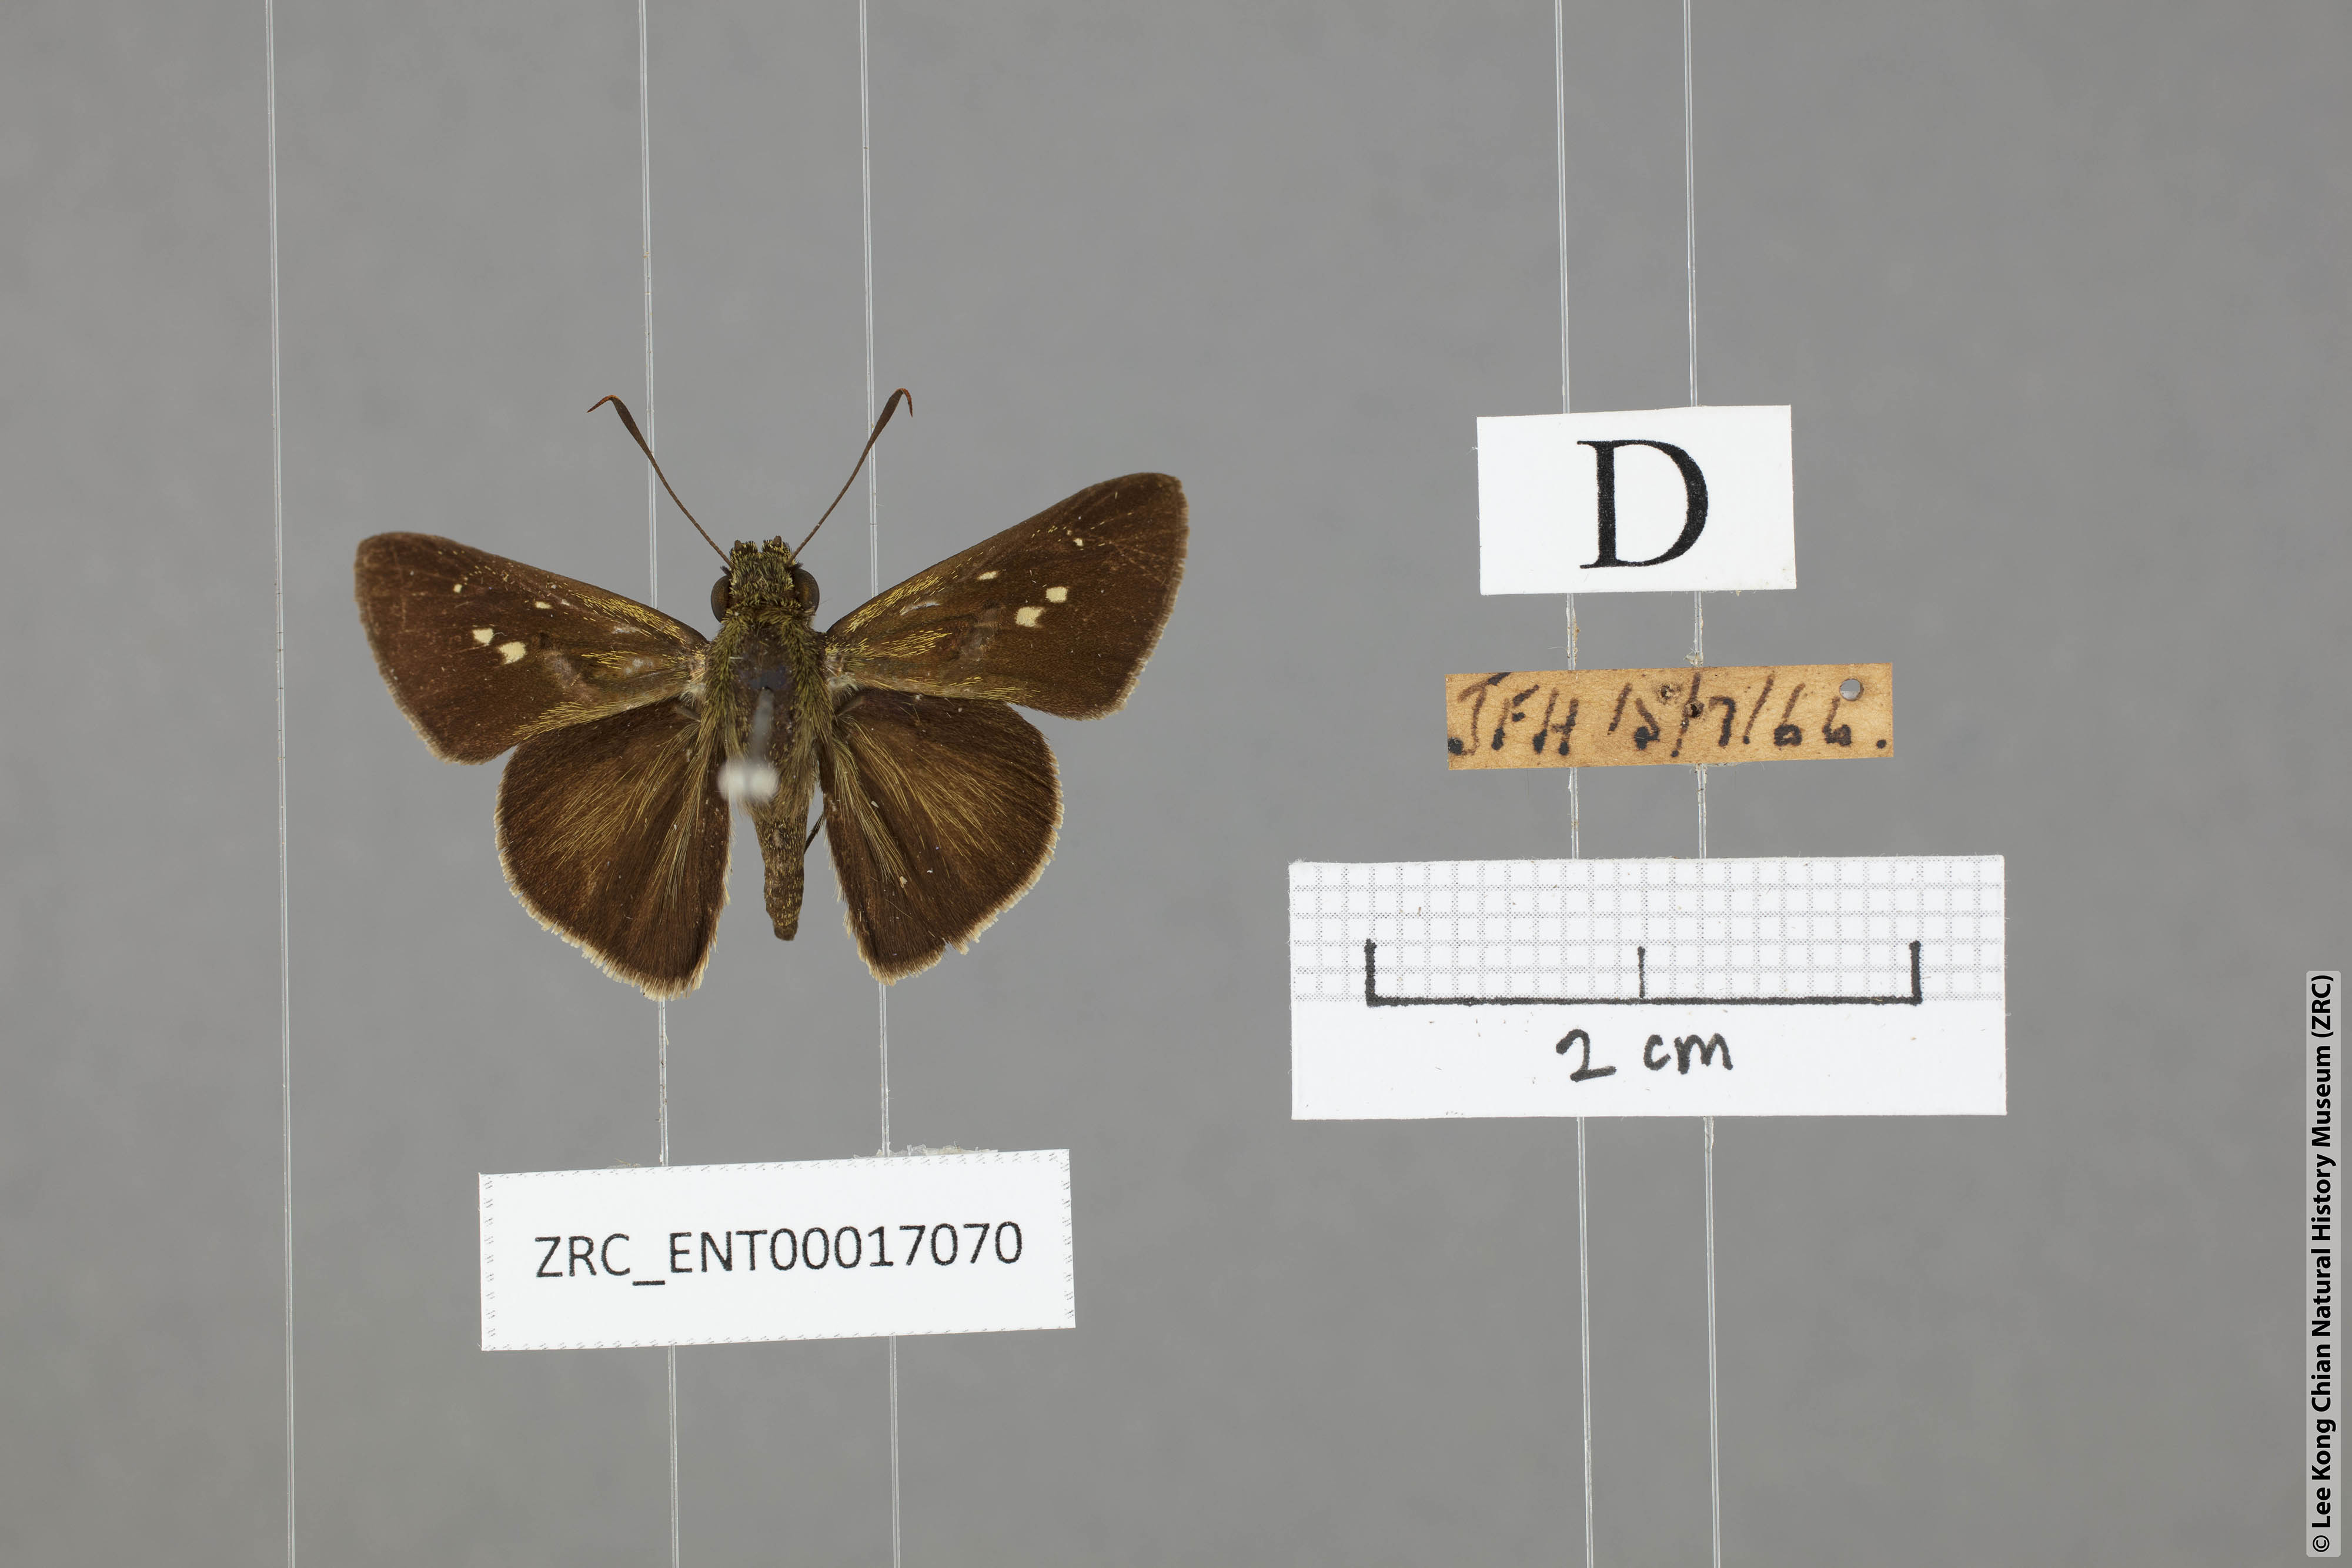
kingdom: Animalia
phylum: Arthropoda
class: Insecta
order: Lepidoptera
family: Hesperiidae
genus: Halpe
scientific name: Halpe sikkima
